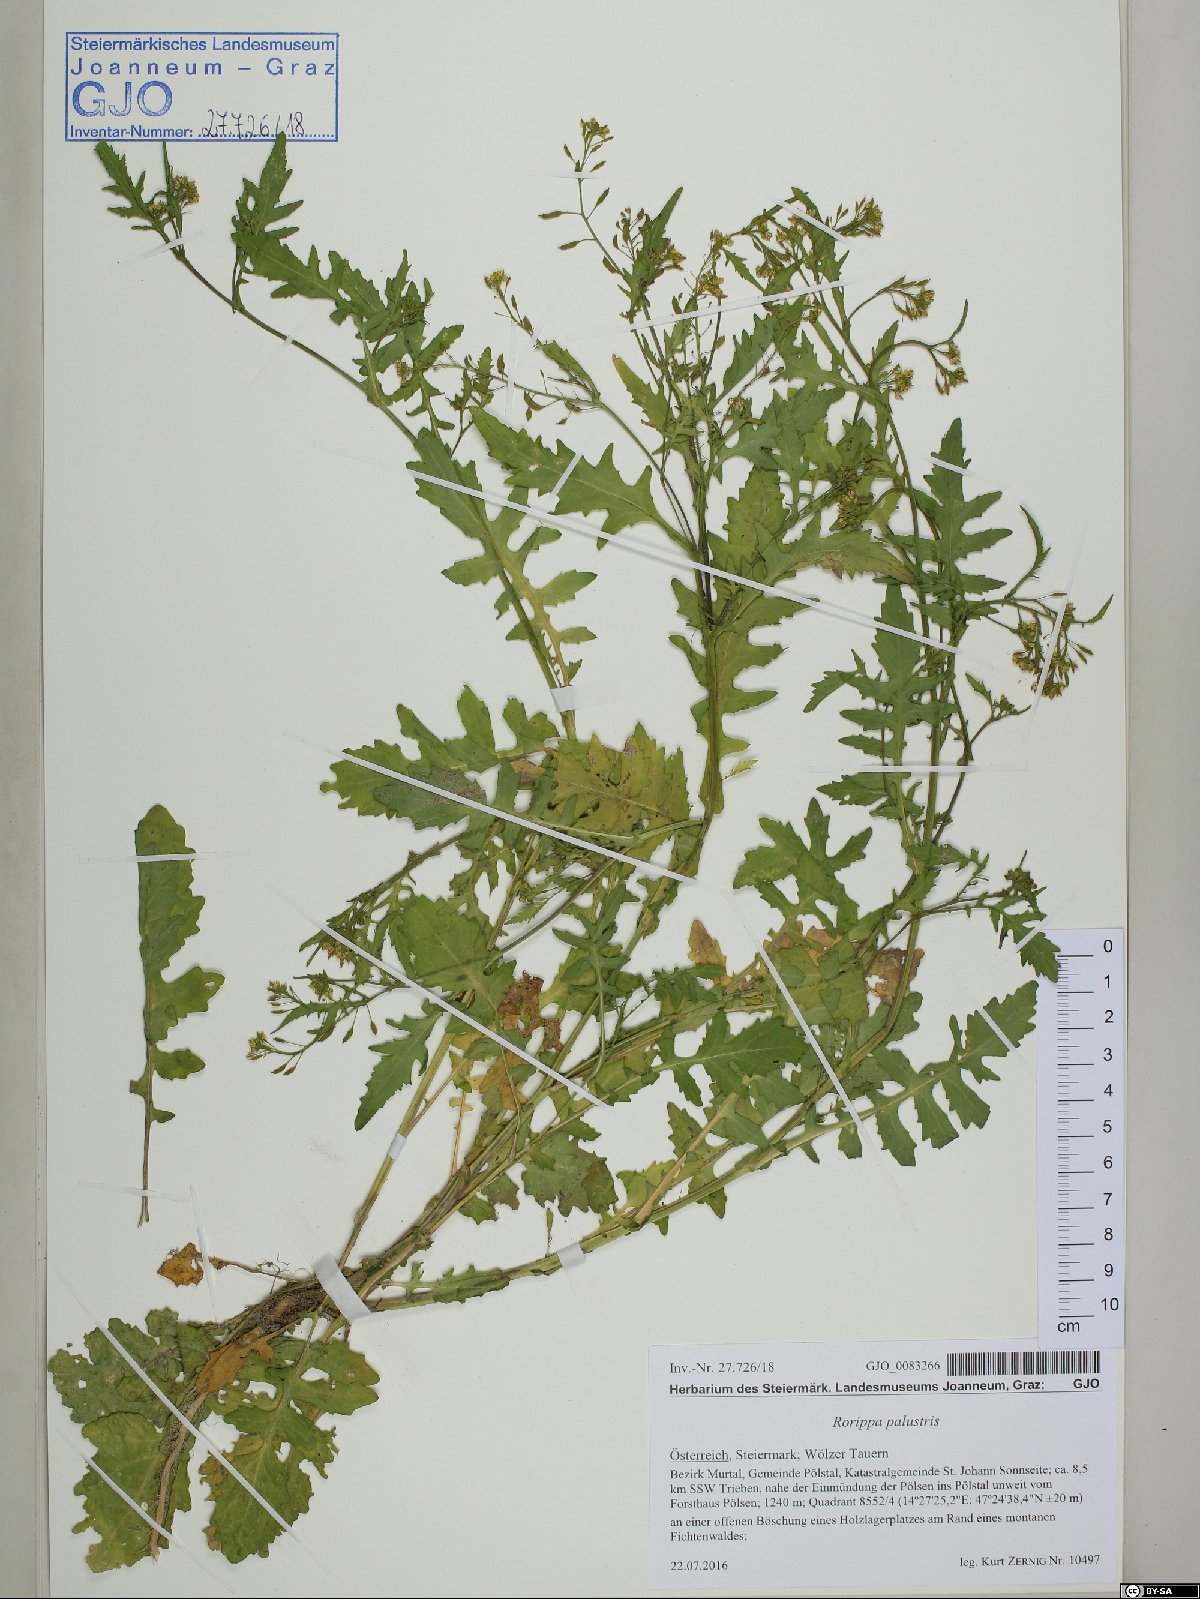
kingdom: Plantae
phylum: Tracheophyta
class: Magnoliopsida
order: Brassicales
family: Brassicaceae
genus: Rorippa
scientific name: Rorippa palustris
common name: Marsh yellow-cress
